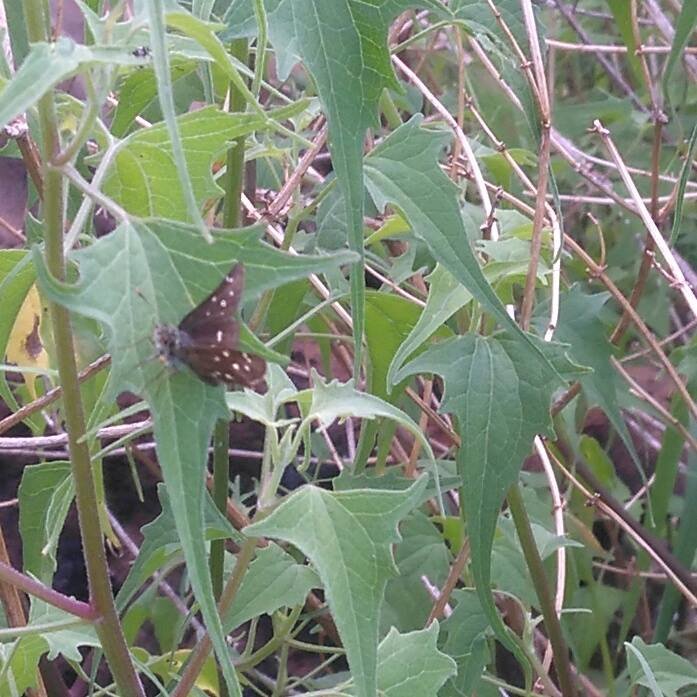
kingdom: Animalia
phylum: Arthropoda
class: Insecta
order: Lepidoptera
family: Hesperiidae
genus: Piruna
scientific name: Piruna aea
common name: Many-spotted Skipperling
